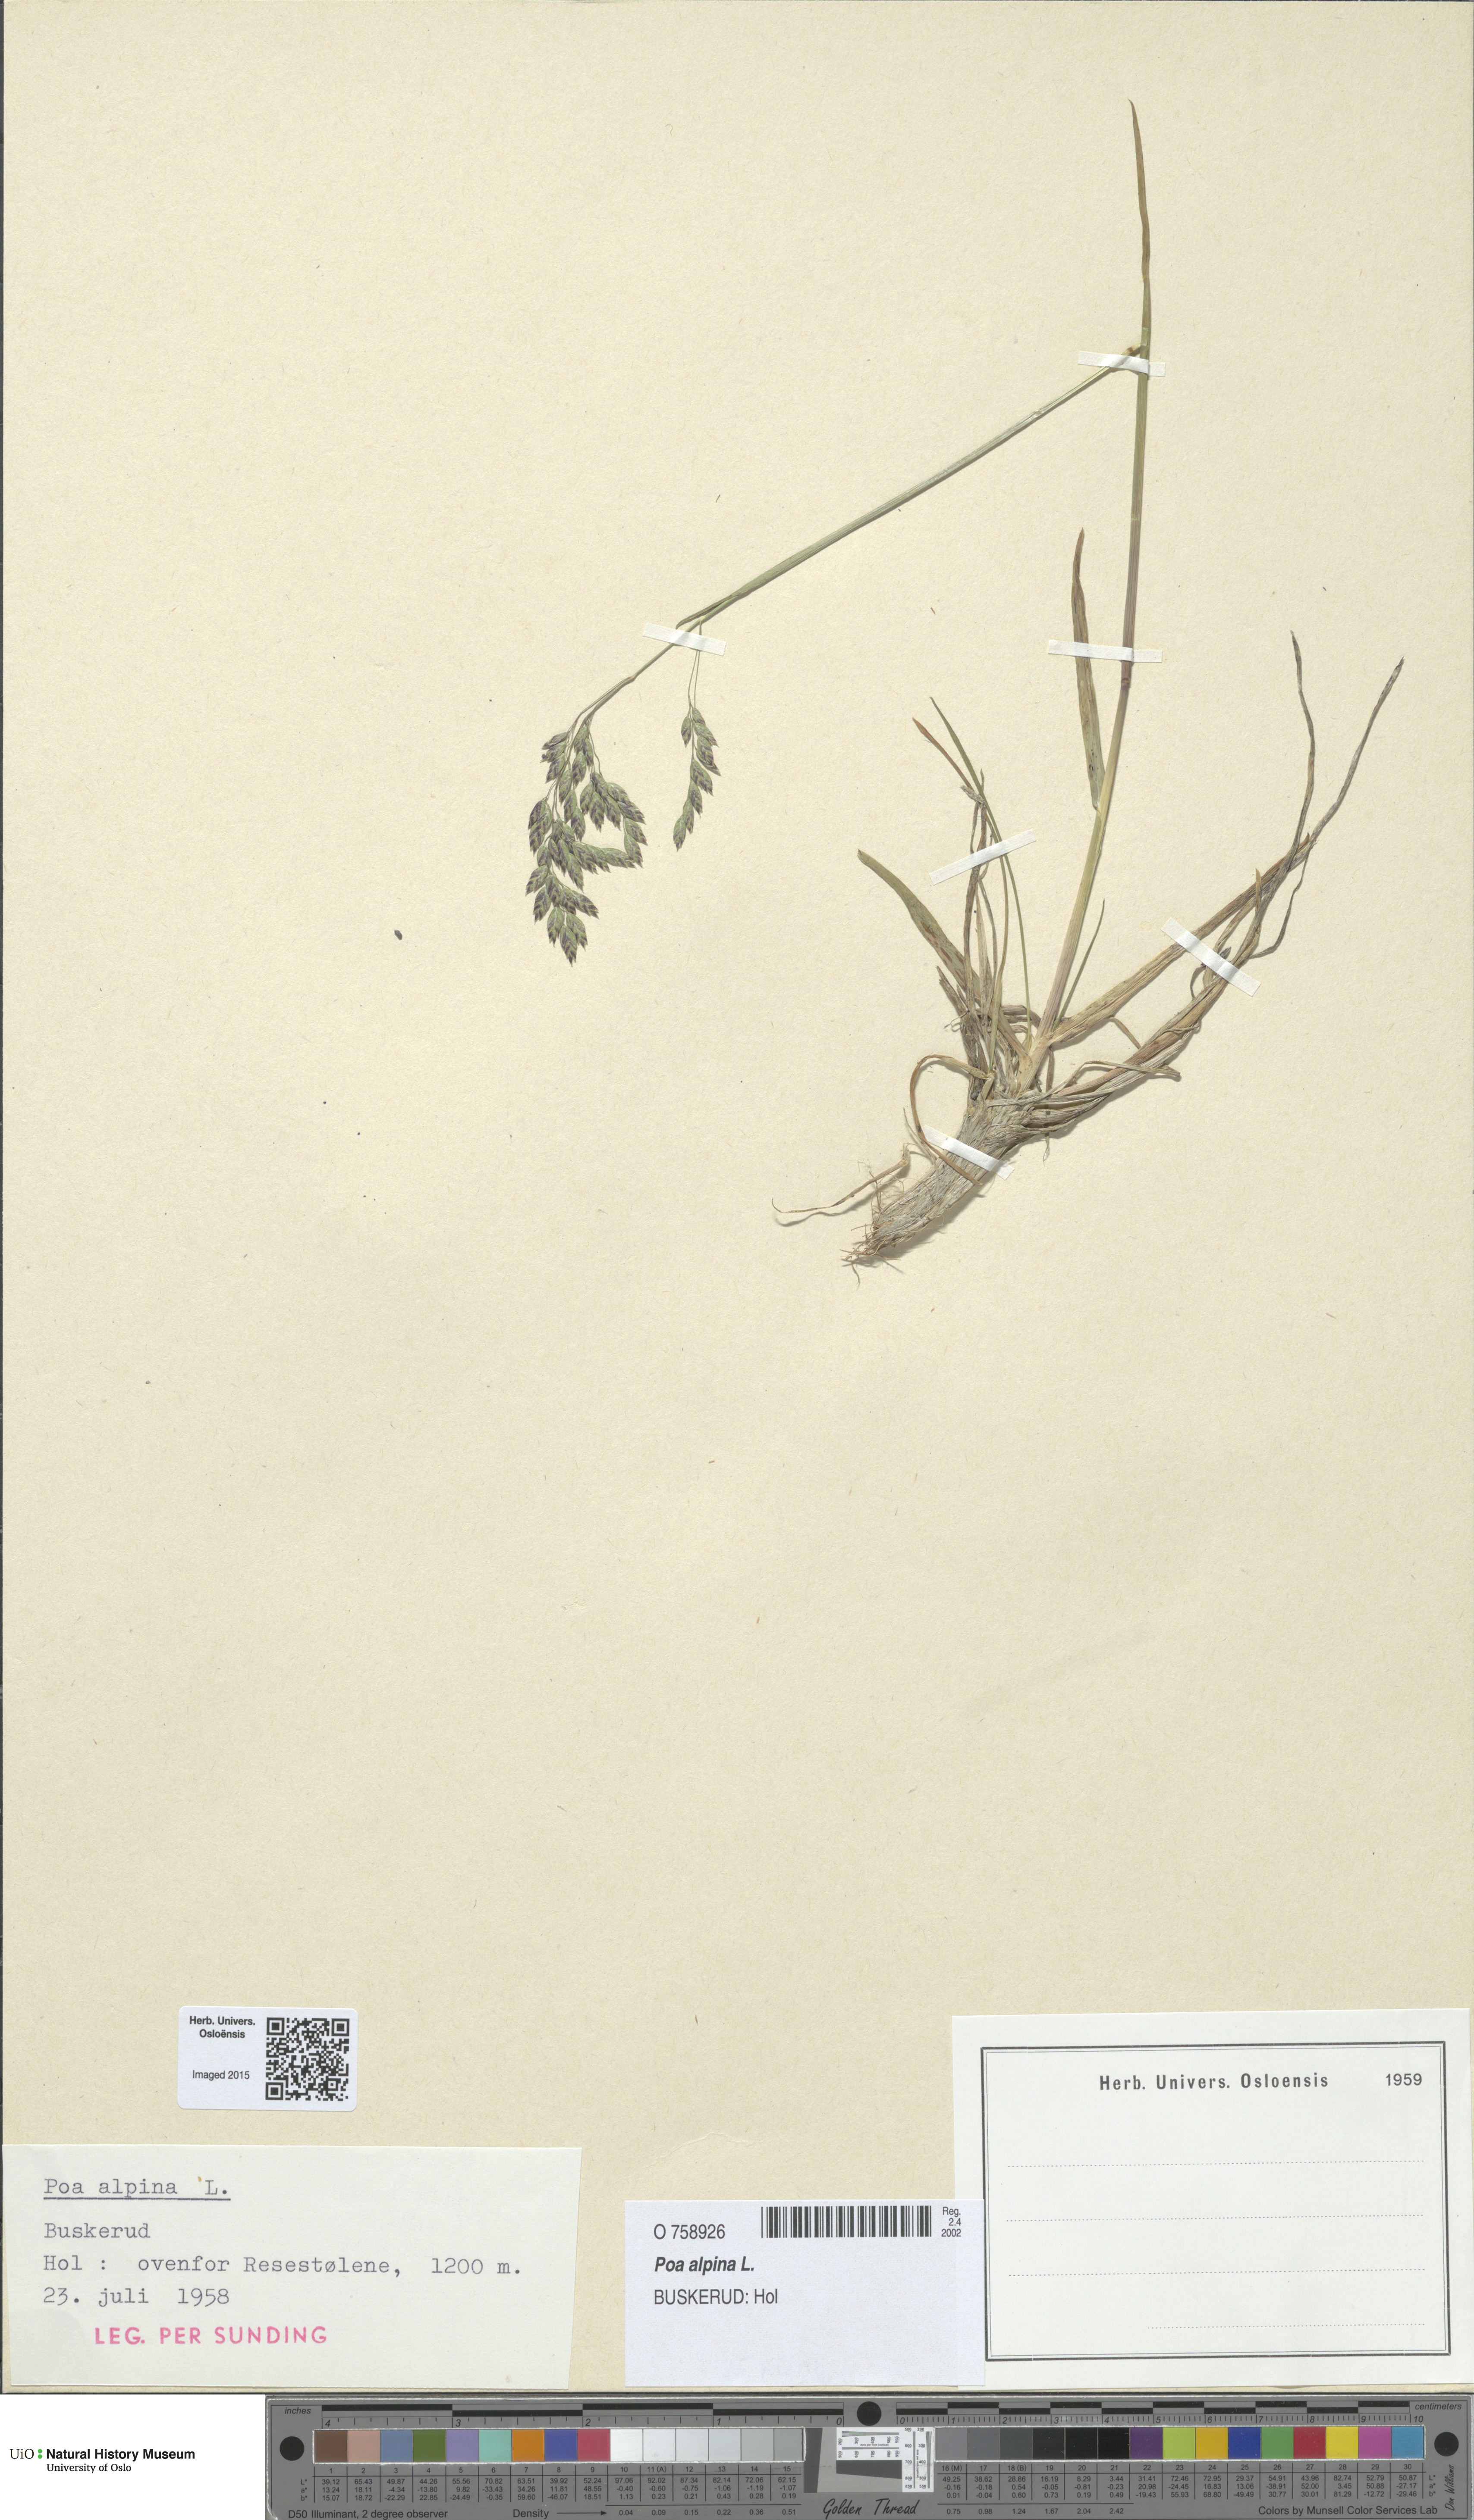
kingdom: Plantae
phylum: Tracheophyta
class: Liliopsida
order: Poales
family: Poaceae
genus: Poa
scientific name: Poa alpina
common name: Alpine bluegrass
